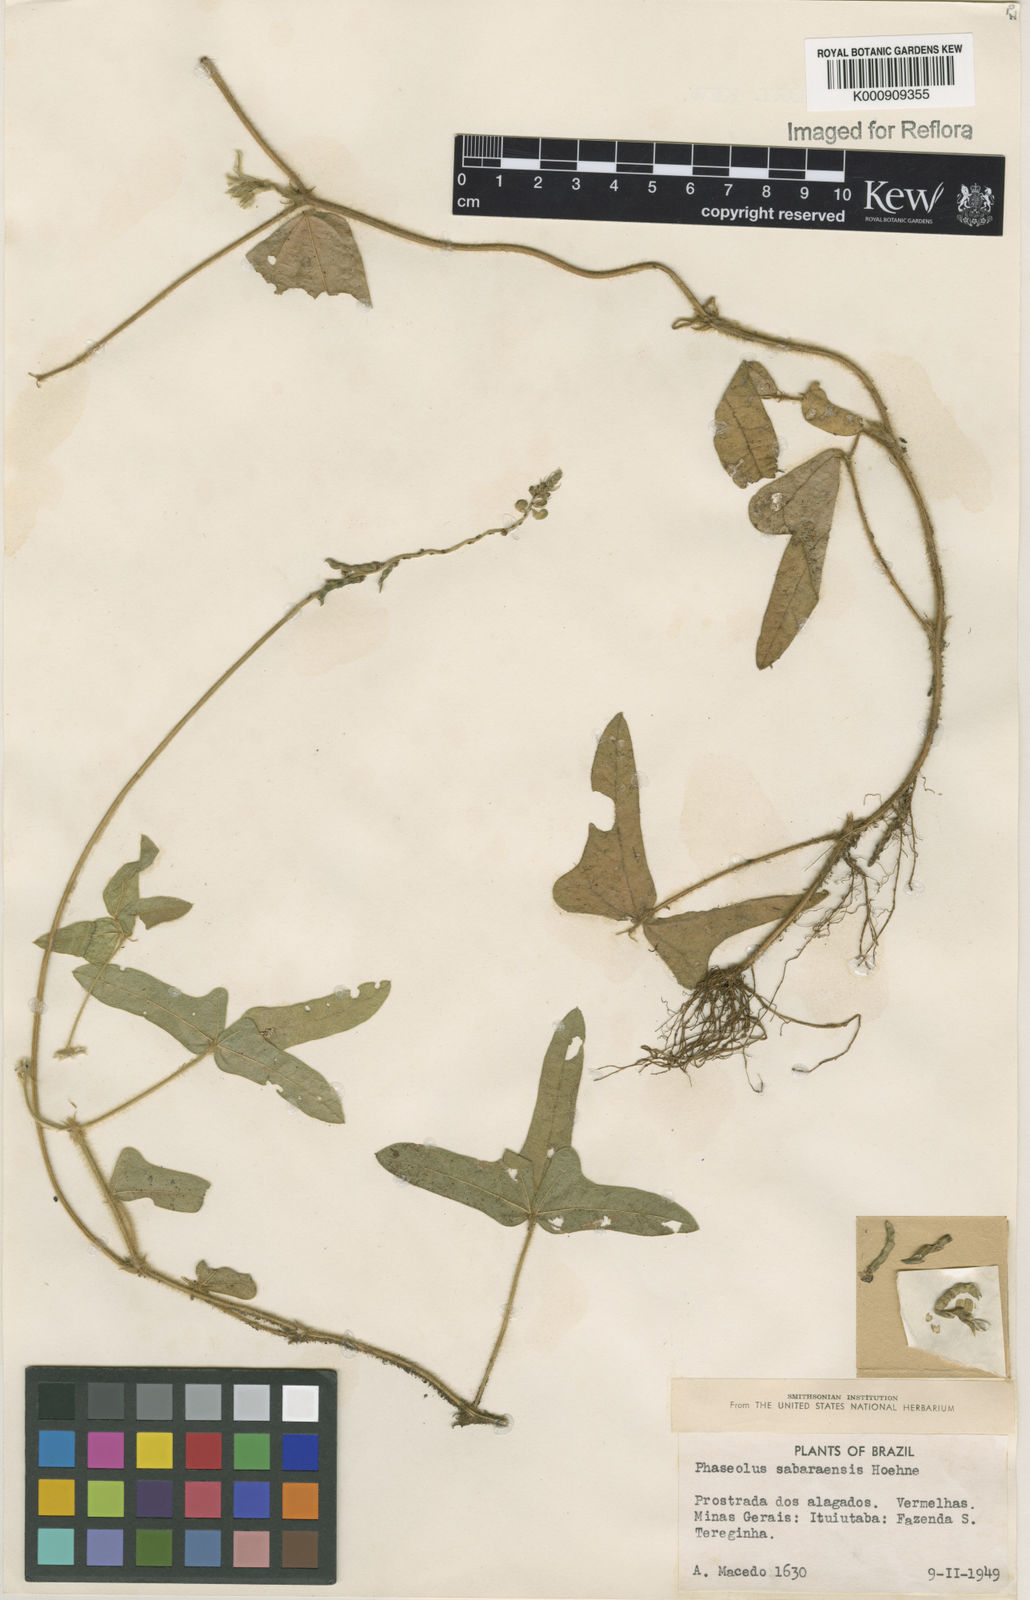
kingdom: Plantae
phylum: Tracheophyta
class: Magnoliopsida
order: Fabales
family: Fabaceae
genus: Macroptilium
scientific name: Macroptilium sabaraense
